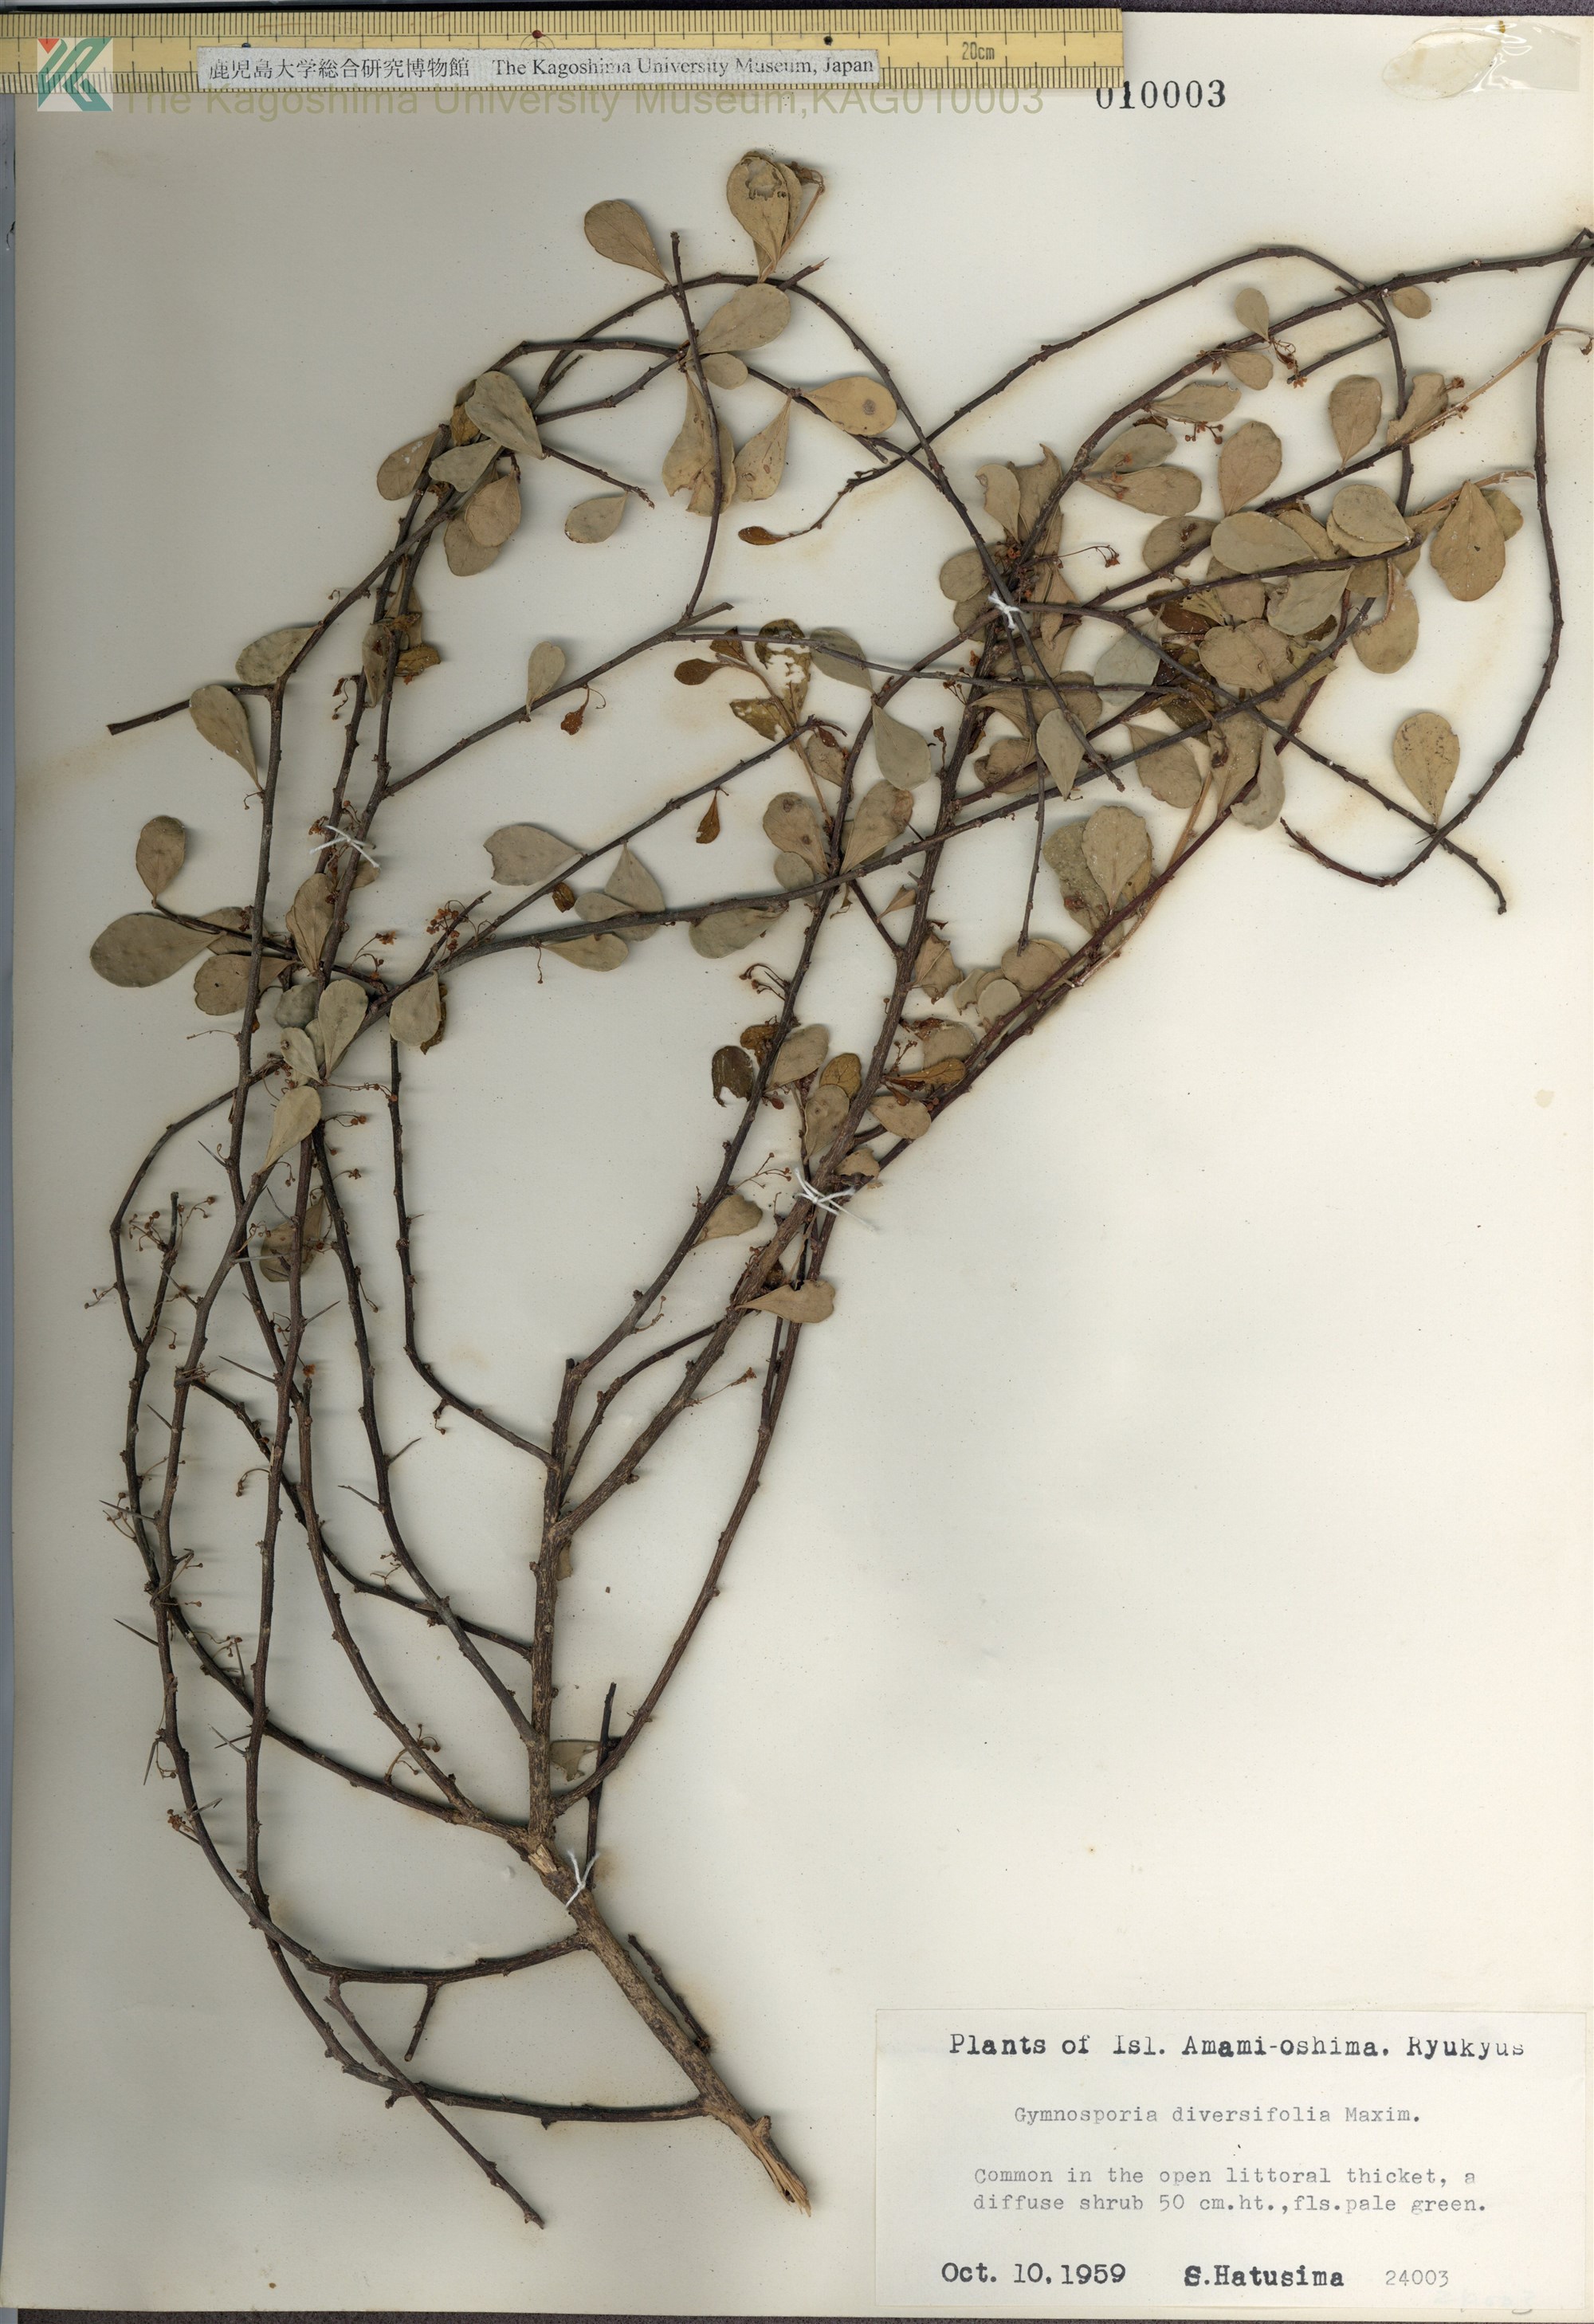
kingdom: Plantae
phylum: Tracheophyta
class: Magnoliopsida
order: Celastrales
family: Celastraceae
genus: Gymnosporia
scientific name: Gymnosporia diversifolia
